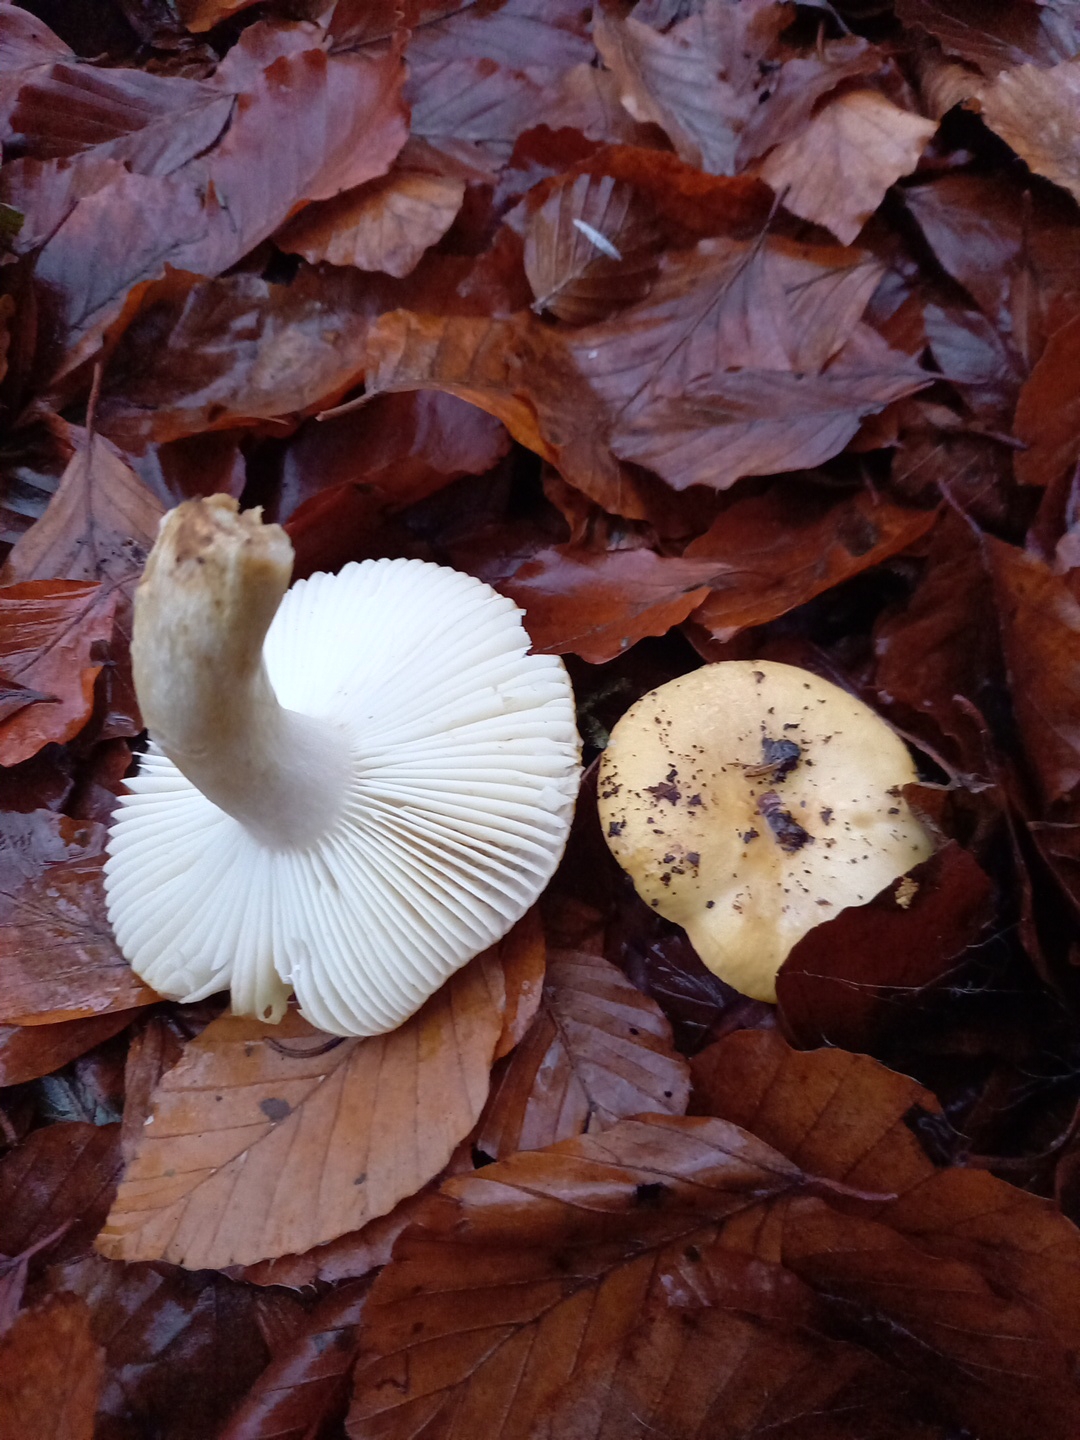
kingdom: Fungi
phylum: Basidiomycota
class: Agaricomycetes
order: Russulales
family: Russulaceae
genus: Russula
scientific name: Russula ochroleuca
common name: okkergul skørhat
